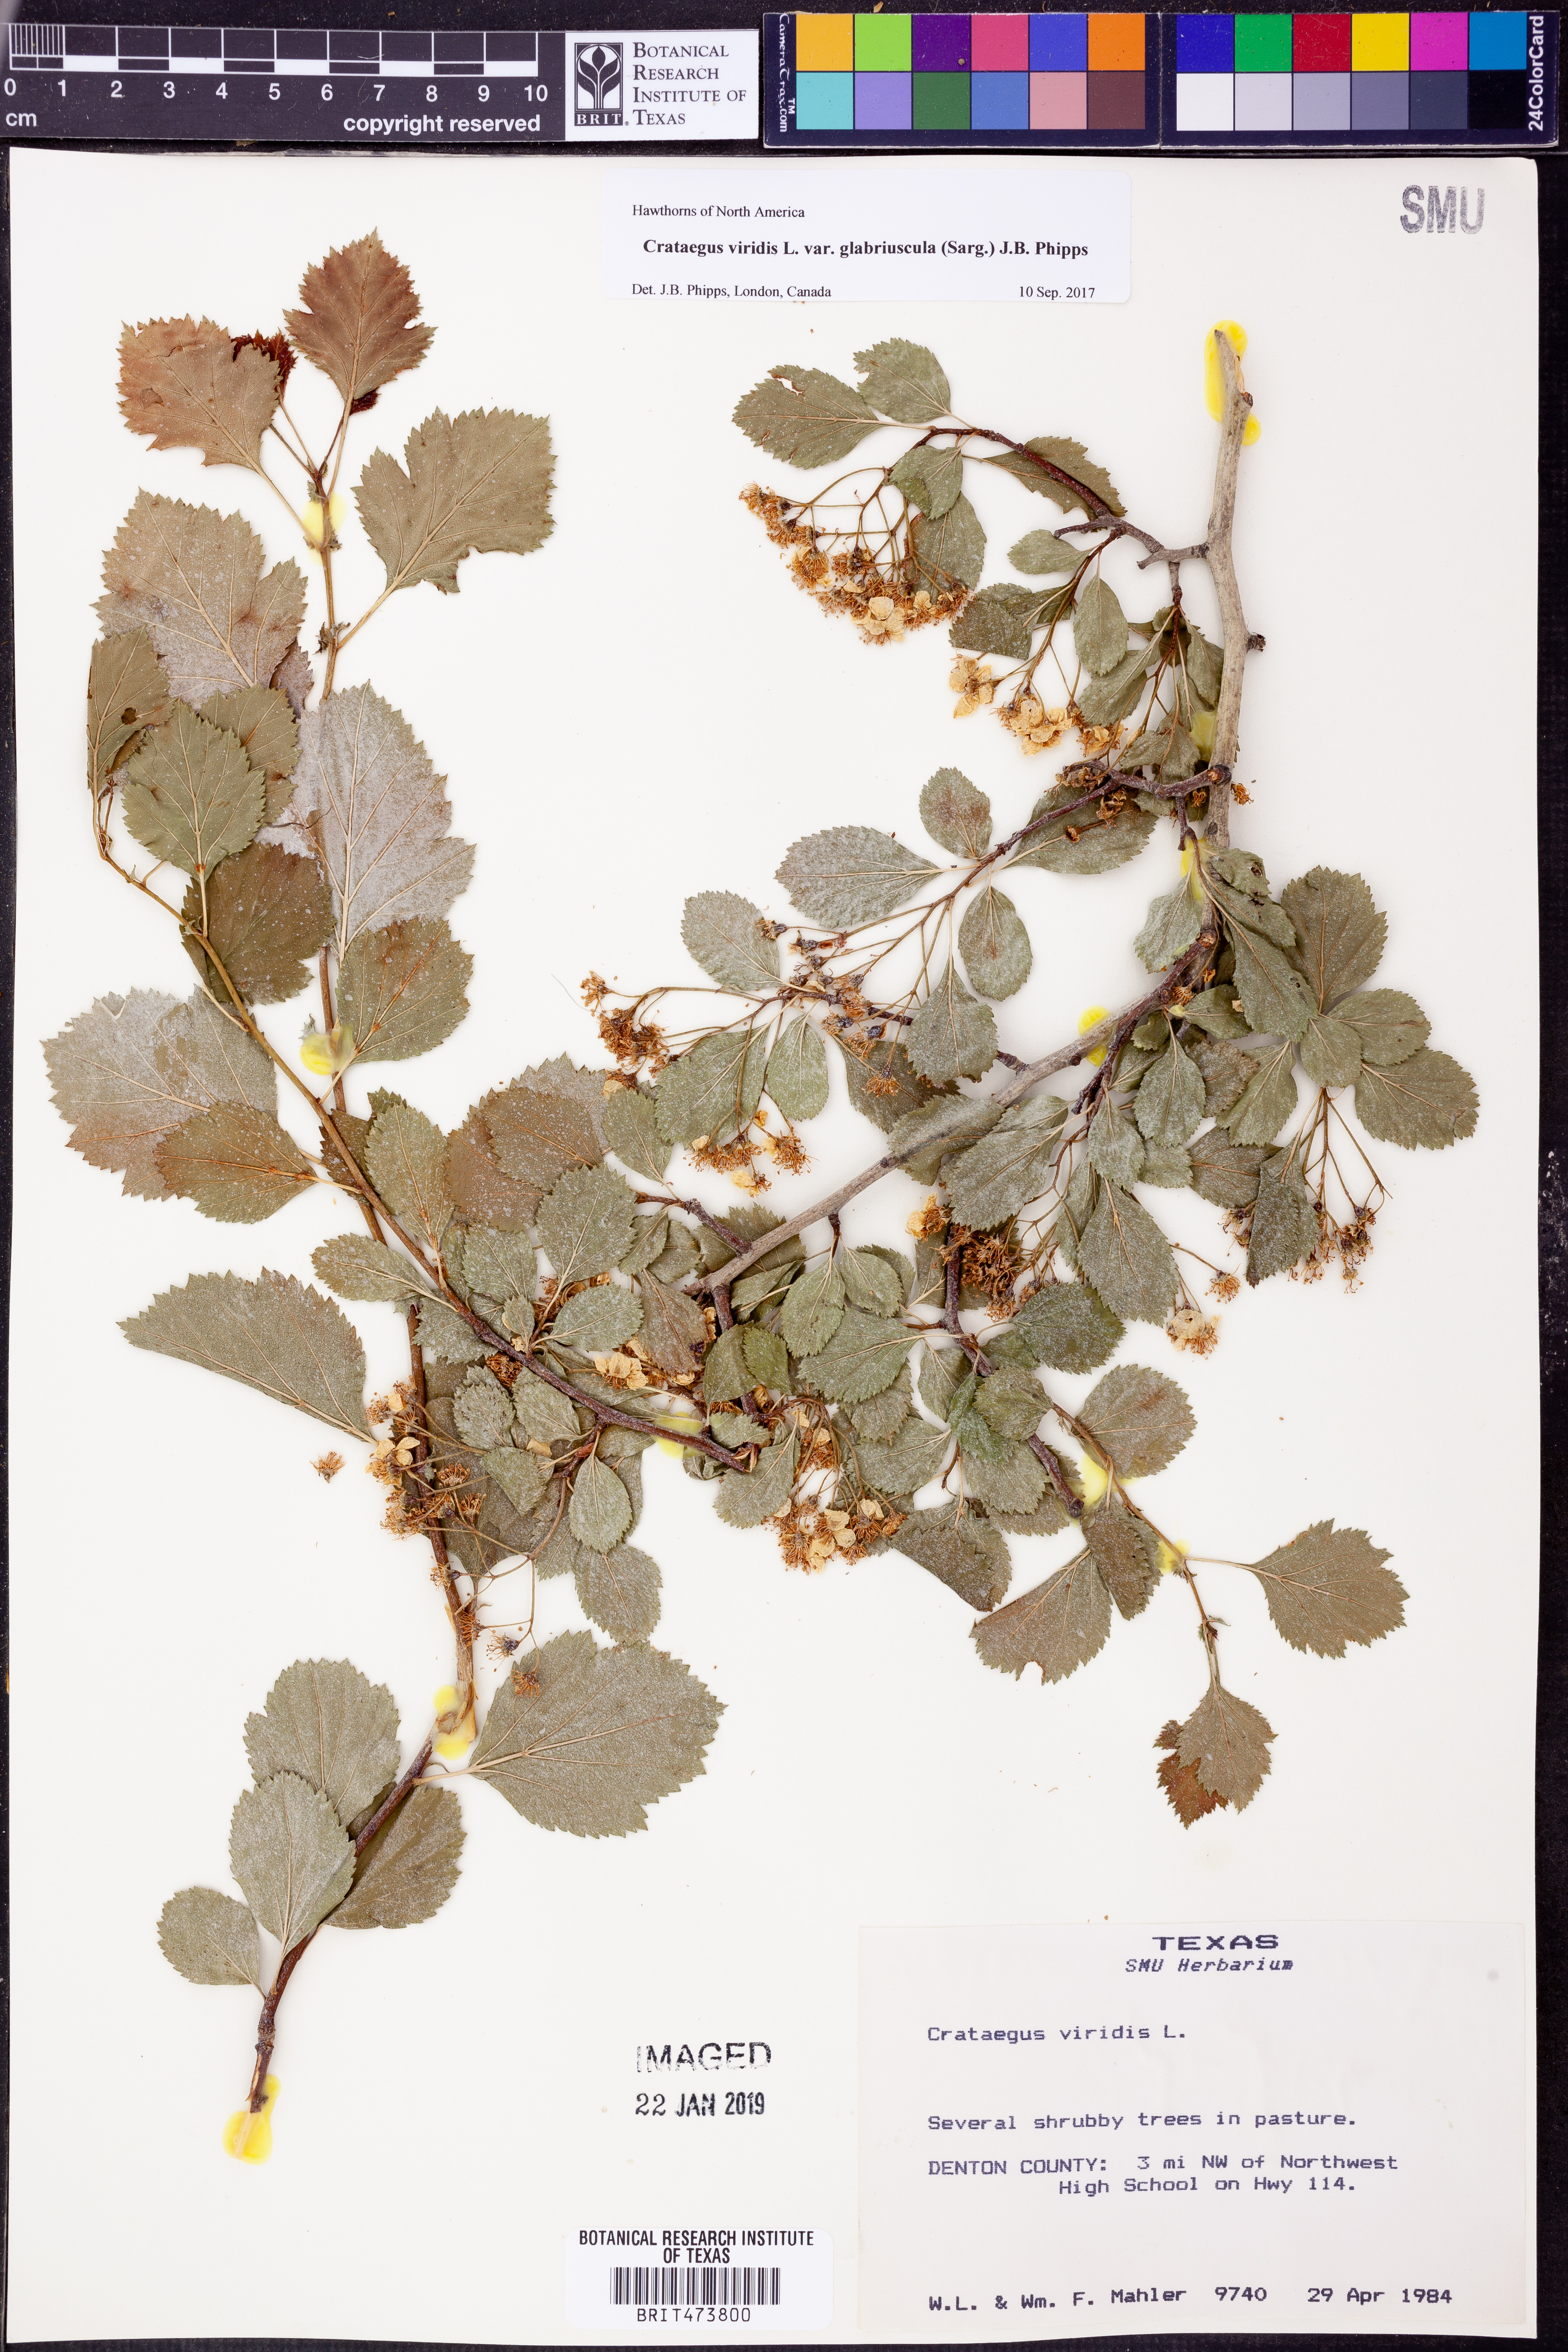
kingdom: Plantae
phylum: Tracheophyta
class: Magnoliopsida
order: Rosales
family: Rosaceae
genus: Crataegus
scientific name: Crataegus viridis
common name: Southernthorn
